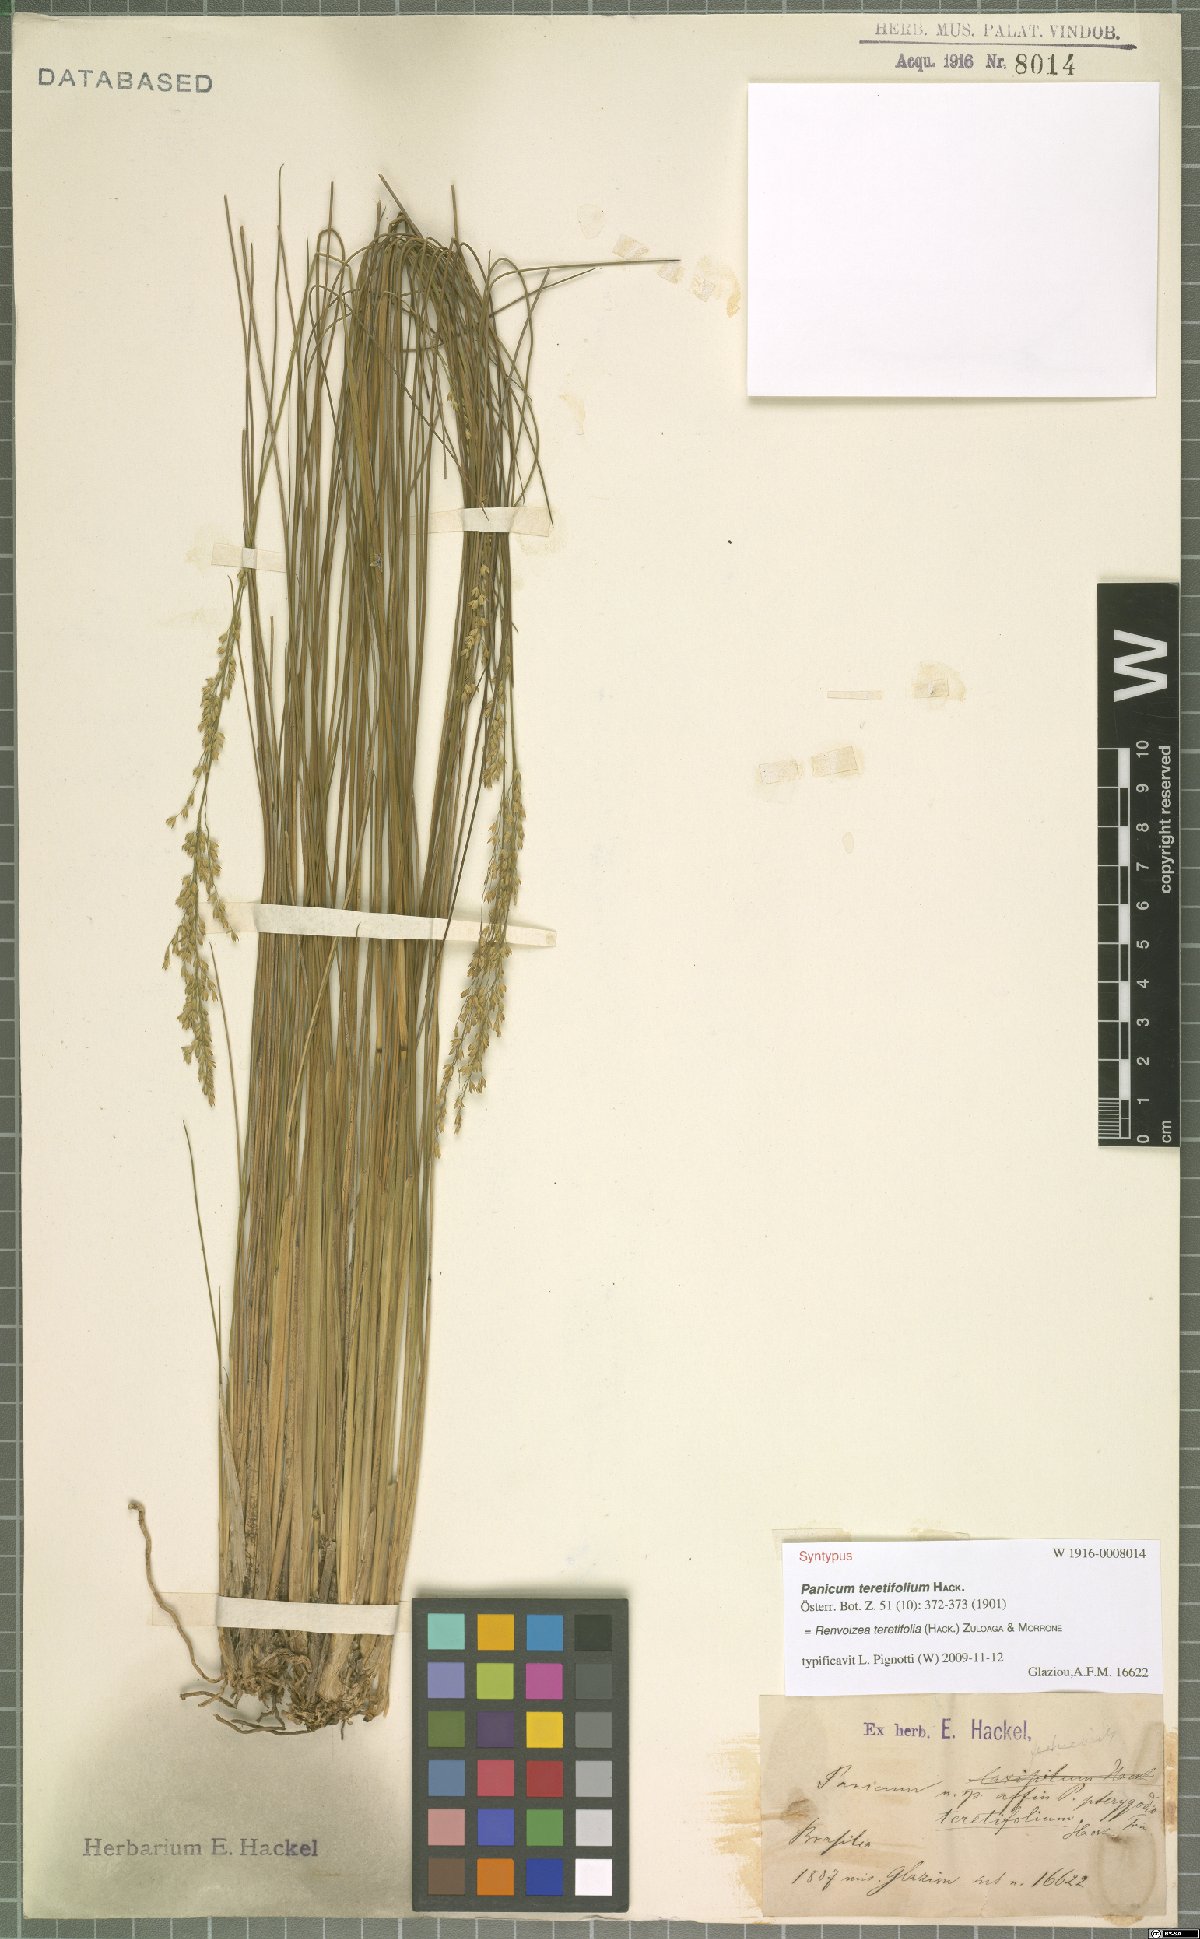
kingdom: Plantae
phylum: Tracheophyta
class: Liliopsida
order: Poales
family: Poaceae
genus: Renvoizea
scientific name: Renvoizea teretifolia
